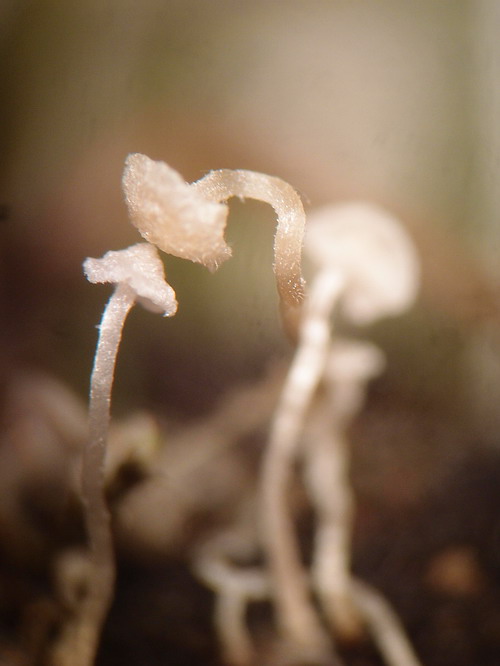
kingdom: Fungi
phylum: Basidiomycota
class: Agaricomycetes
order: Agaricales
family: Tricholomataceae
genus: Collybia
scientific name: Collybia
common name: lighat
